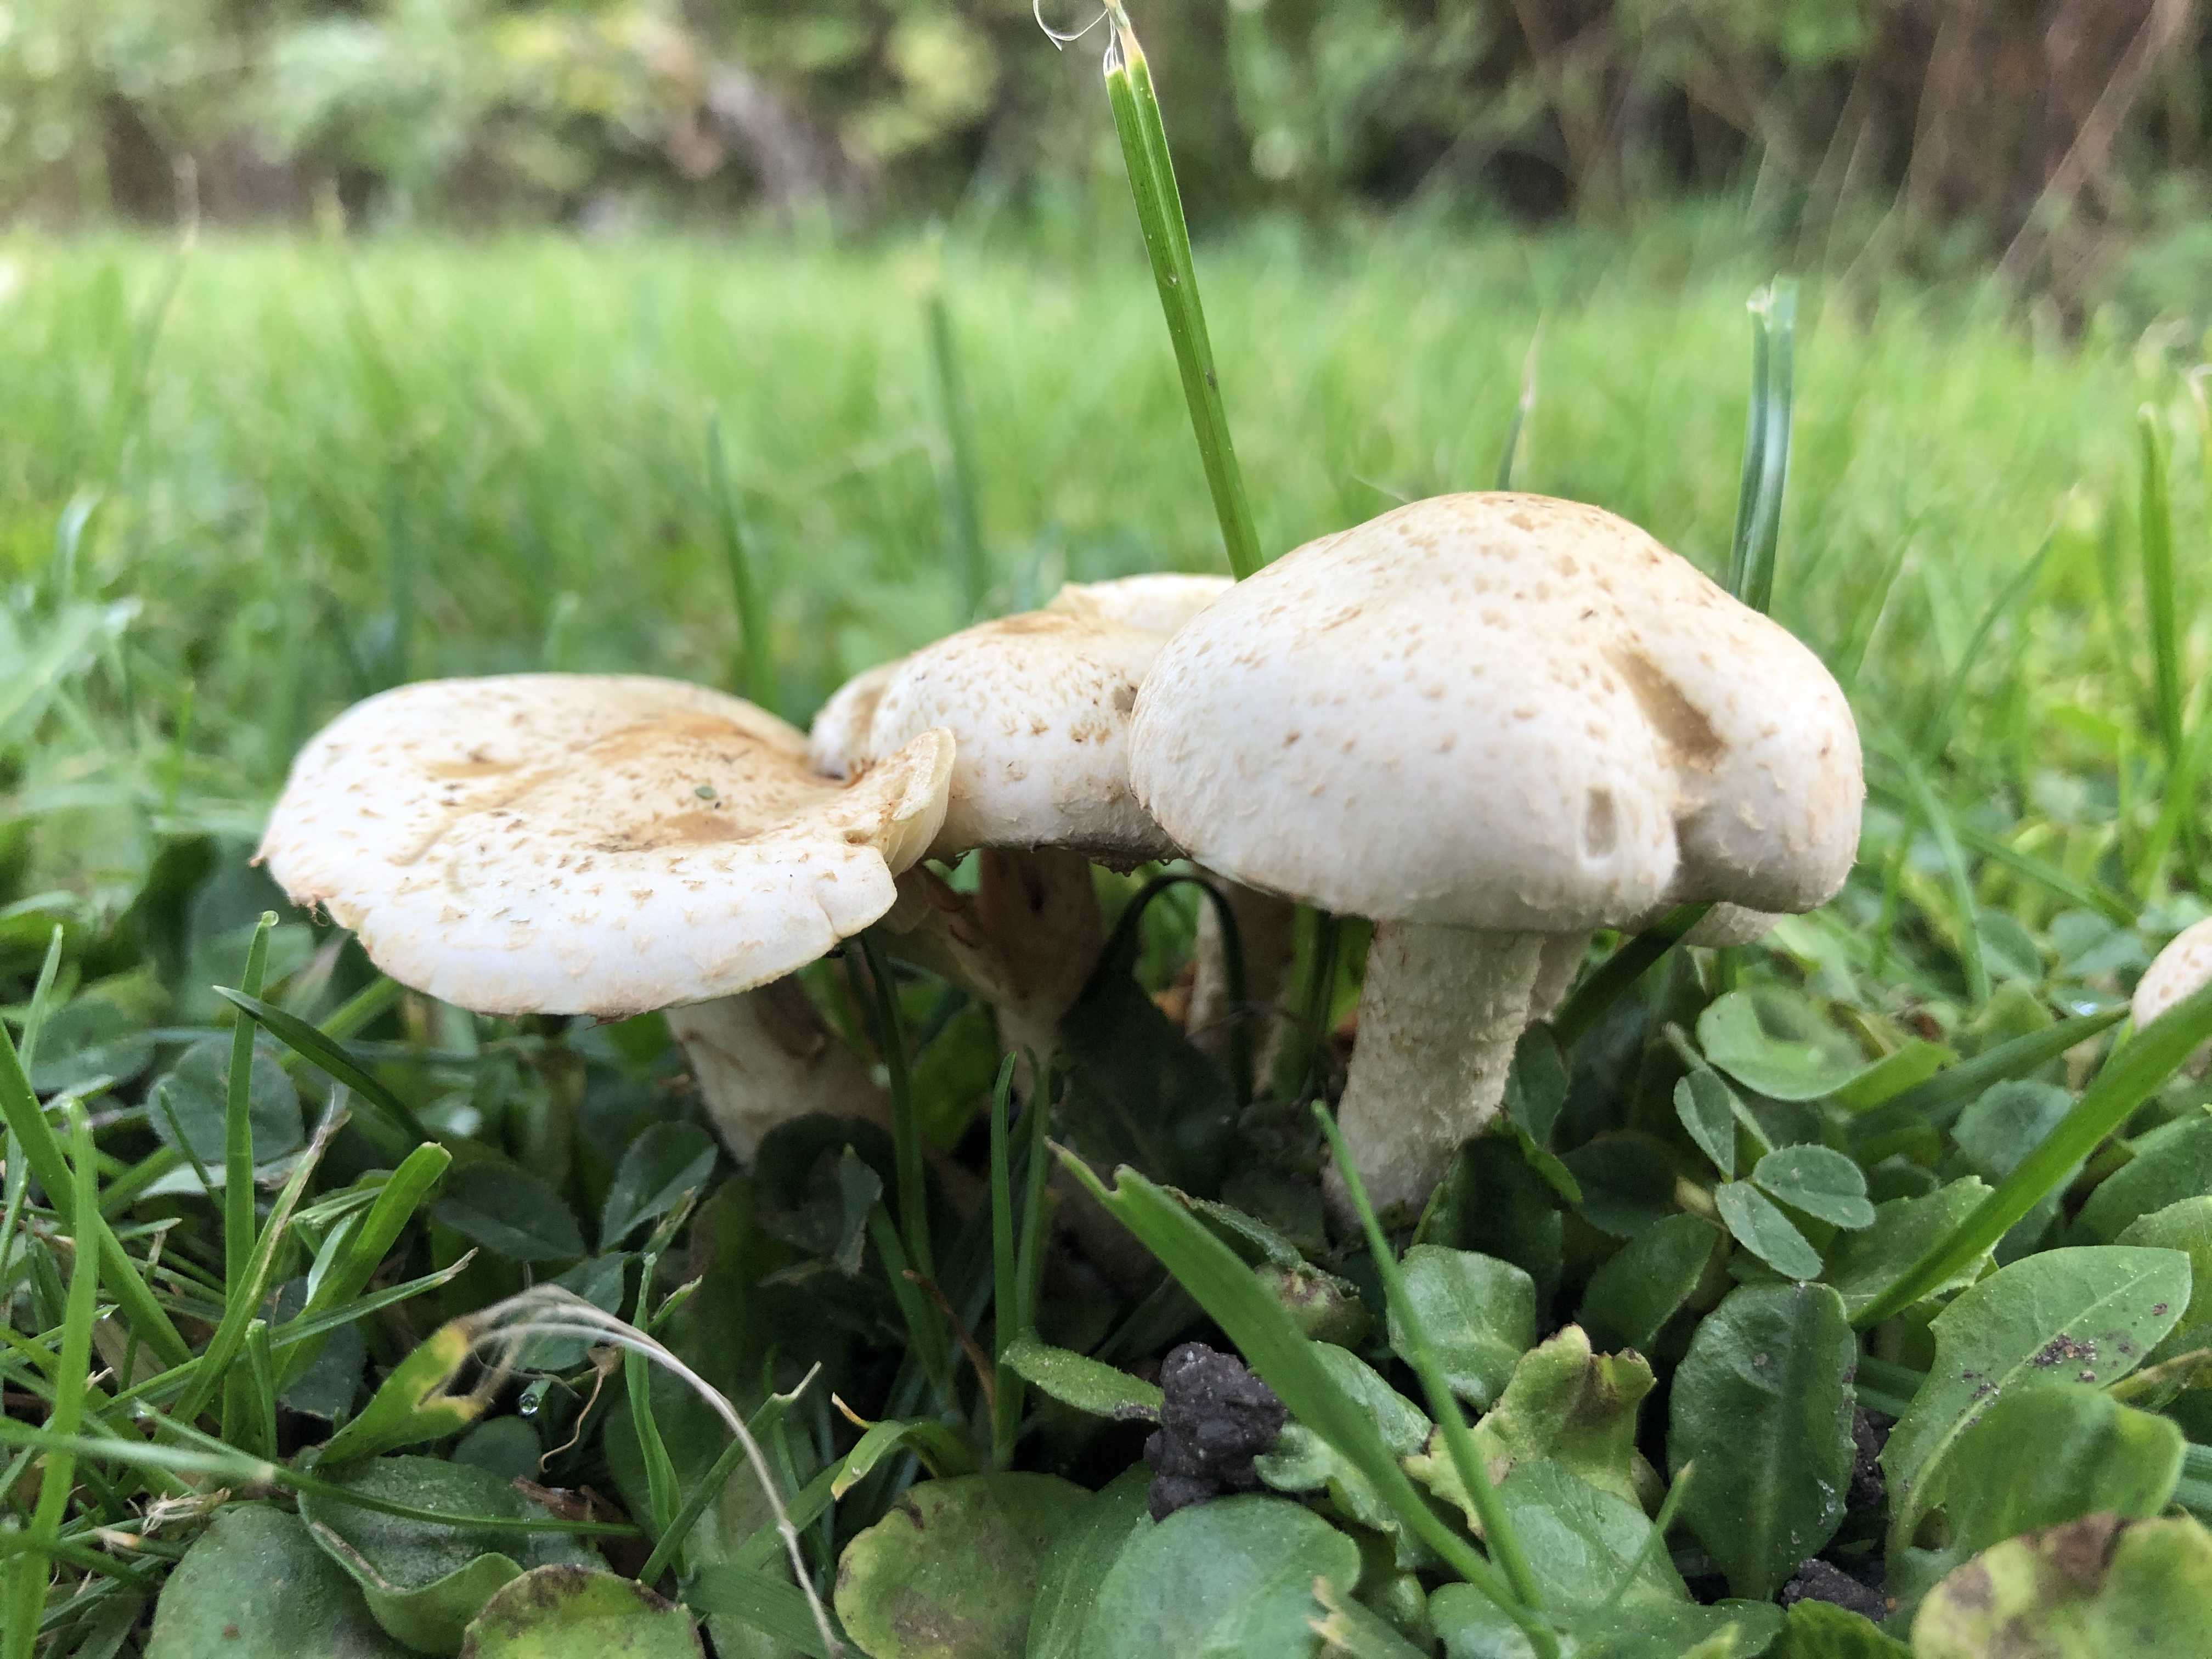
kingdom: Fungi
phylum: Basidiomycota
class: Agaricomycetes
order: Agaricales
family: Strophariaceae
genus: Pholiota
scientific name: Pholiota gummosa
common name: grøngul skælhat
